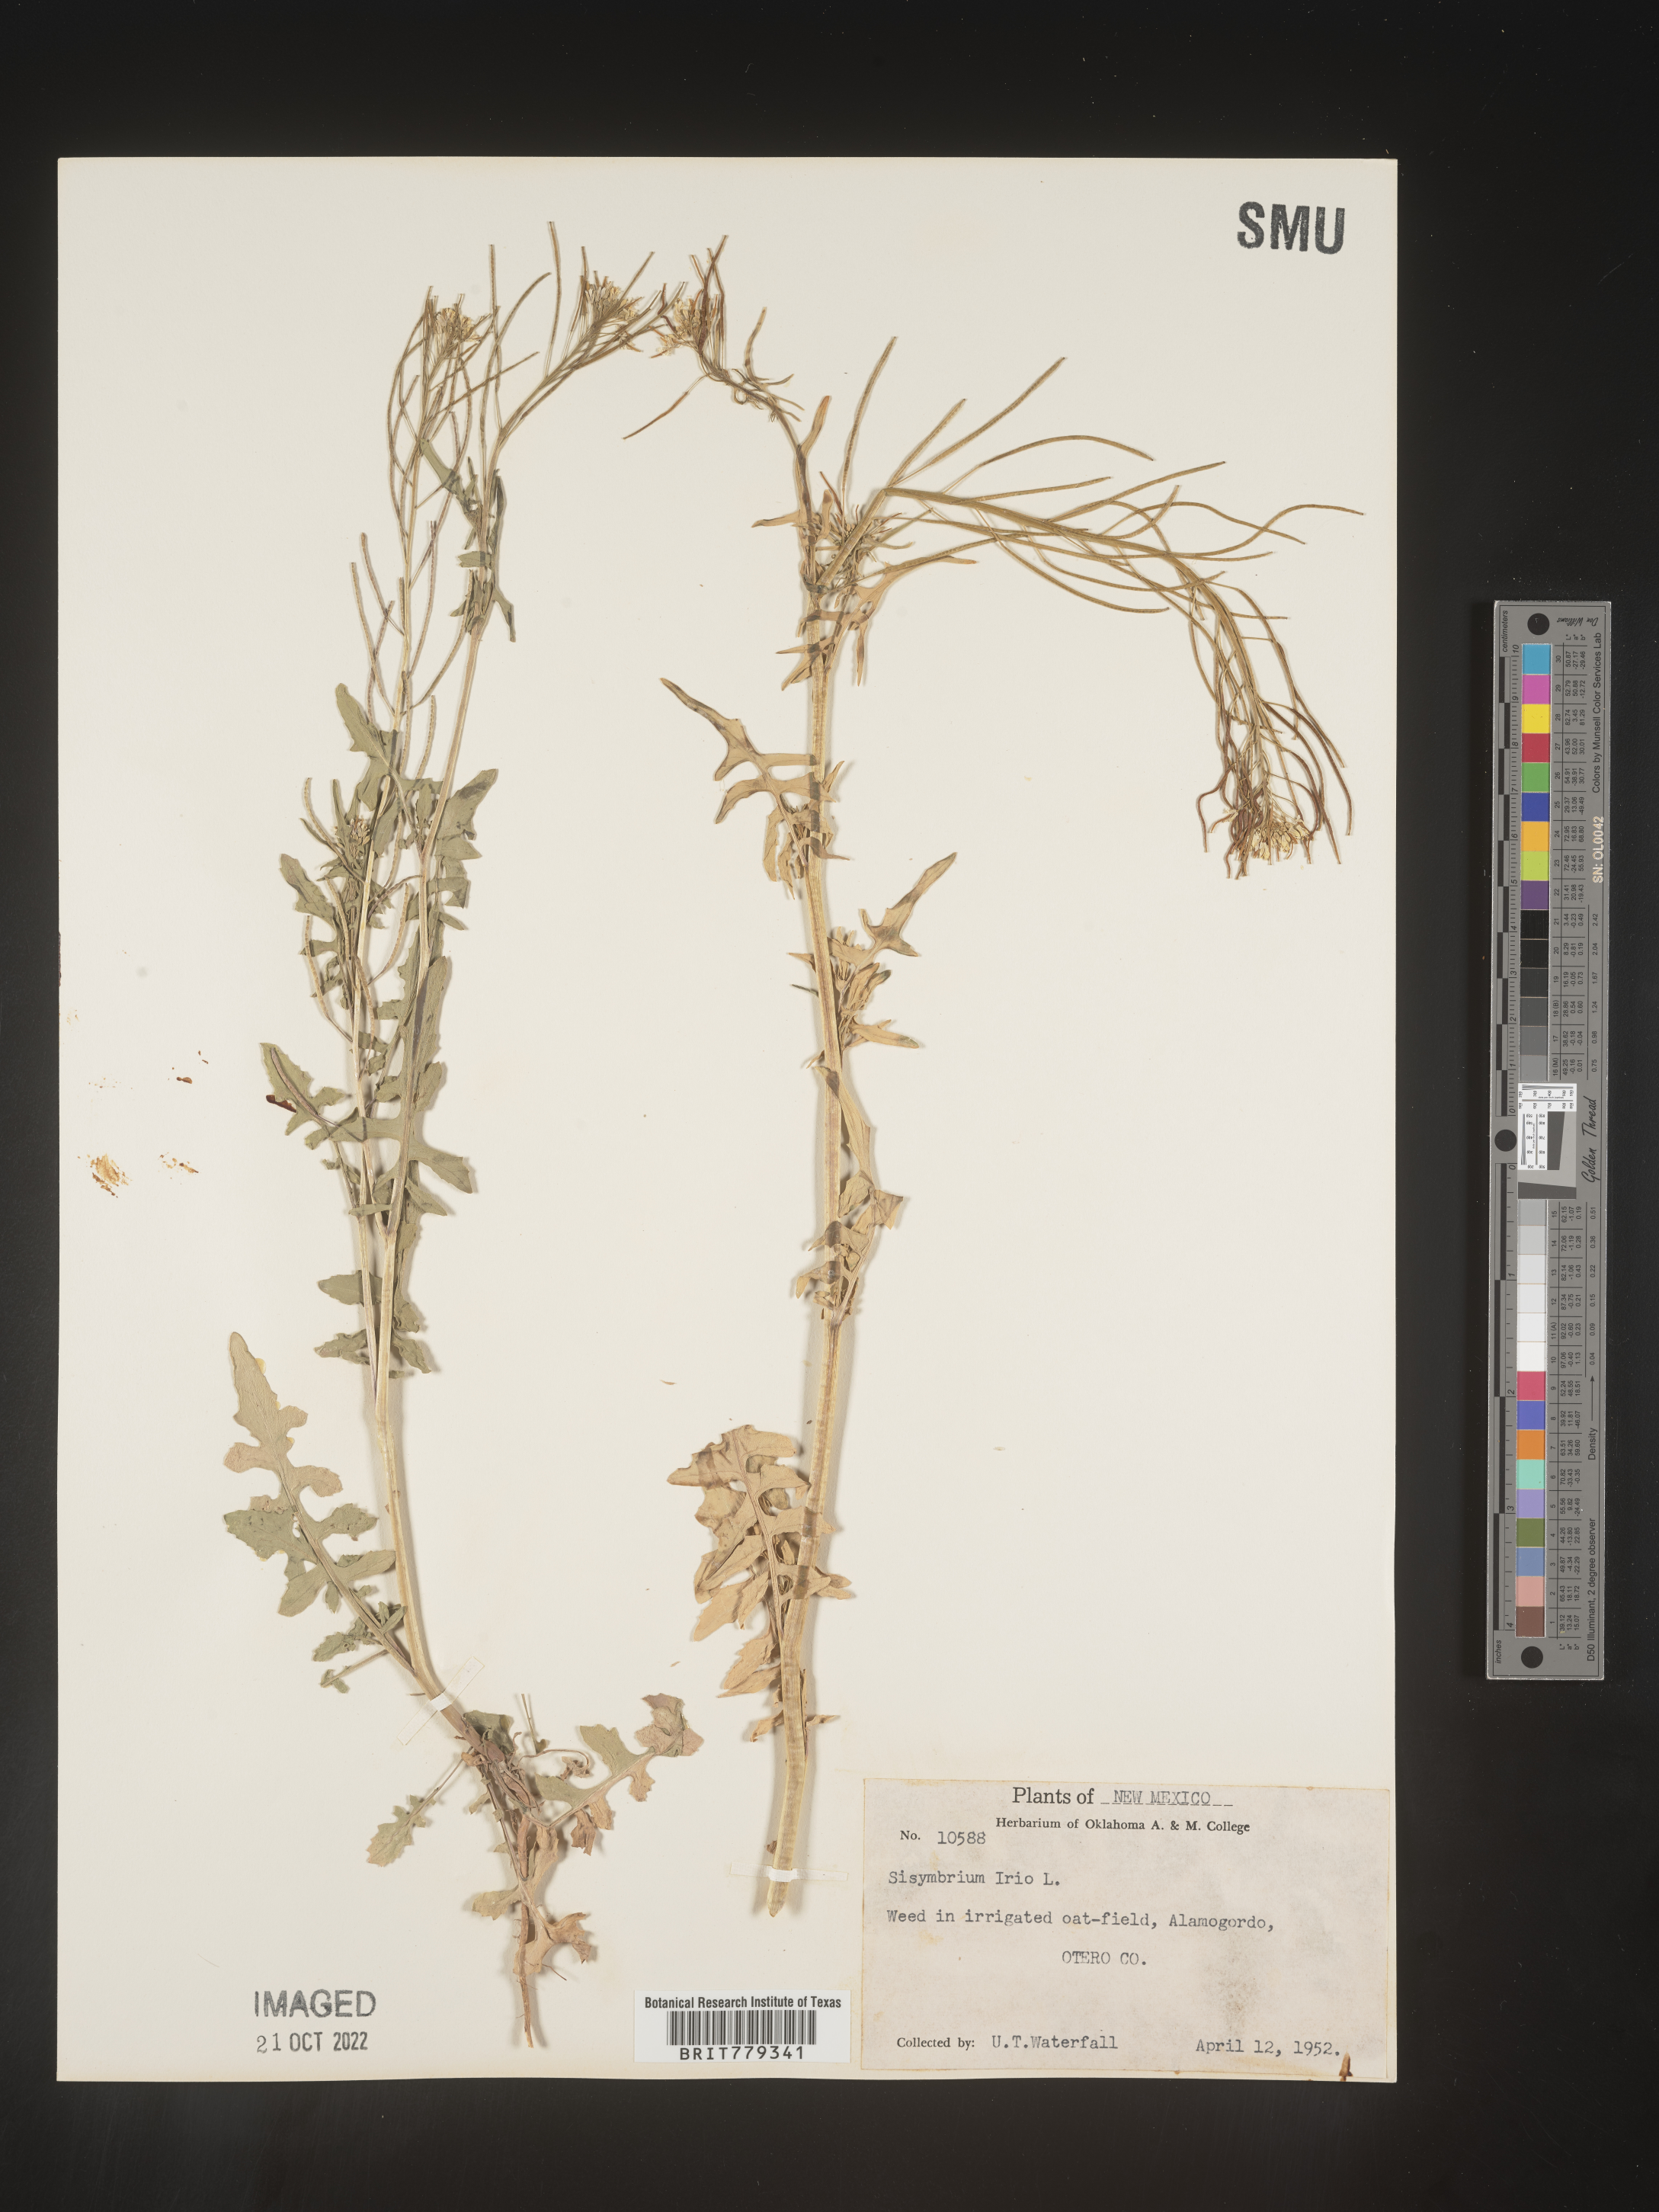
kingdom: Plantae
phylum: Tracheophyta
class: Magnoliopsida
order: Brassicales
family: Brassicaceae
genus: Sisymbrium
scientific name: Sisymbrium
